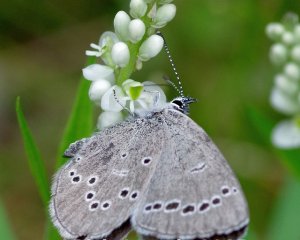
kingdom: Animalia
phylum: Arthropoda
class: Insecta
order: Lepidoptera
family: Lycaenidae
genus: Glaucopsyche
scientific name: Glaucopsyche lygdamus
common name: Silvery Blue
